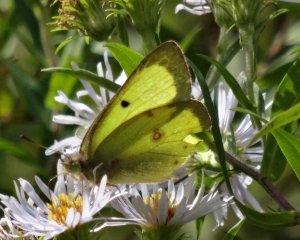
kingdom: Animalia
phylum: Arthropoda
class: Insecta
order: Lepidoptera
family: Pieridae
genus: Colias
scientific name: Colias philodice
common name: Clouded Sulphur
